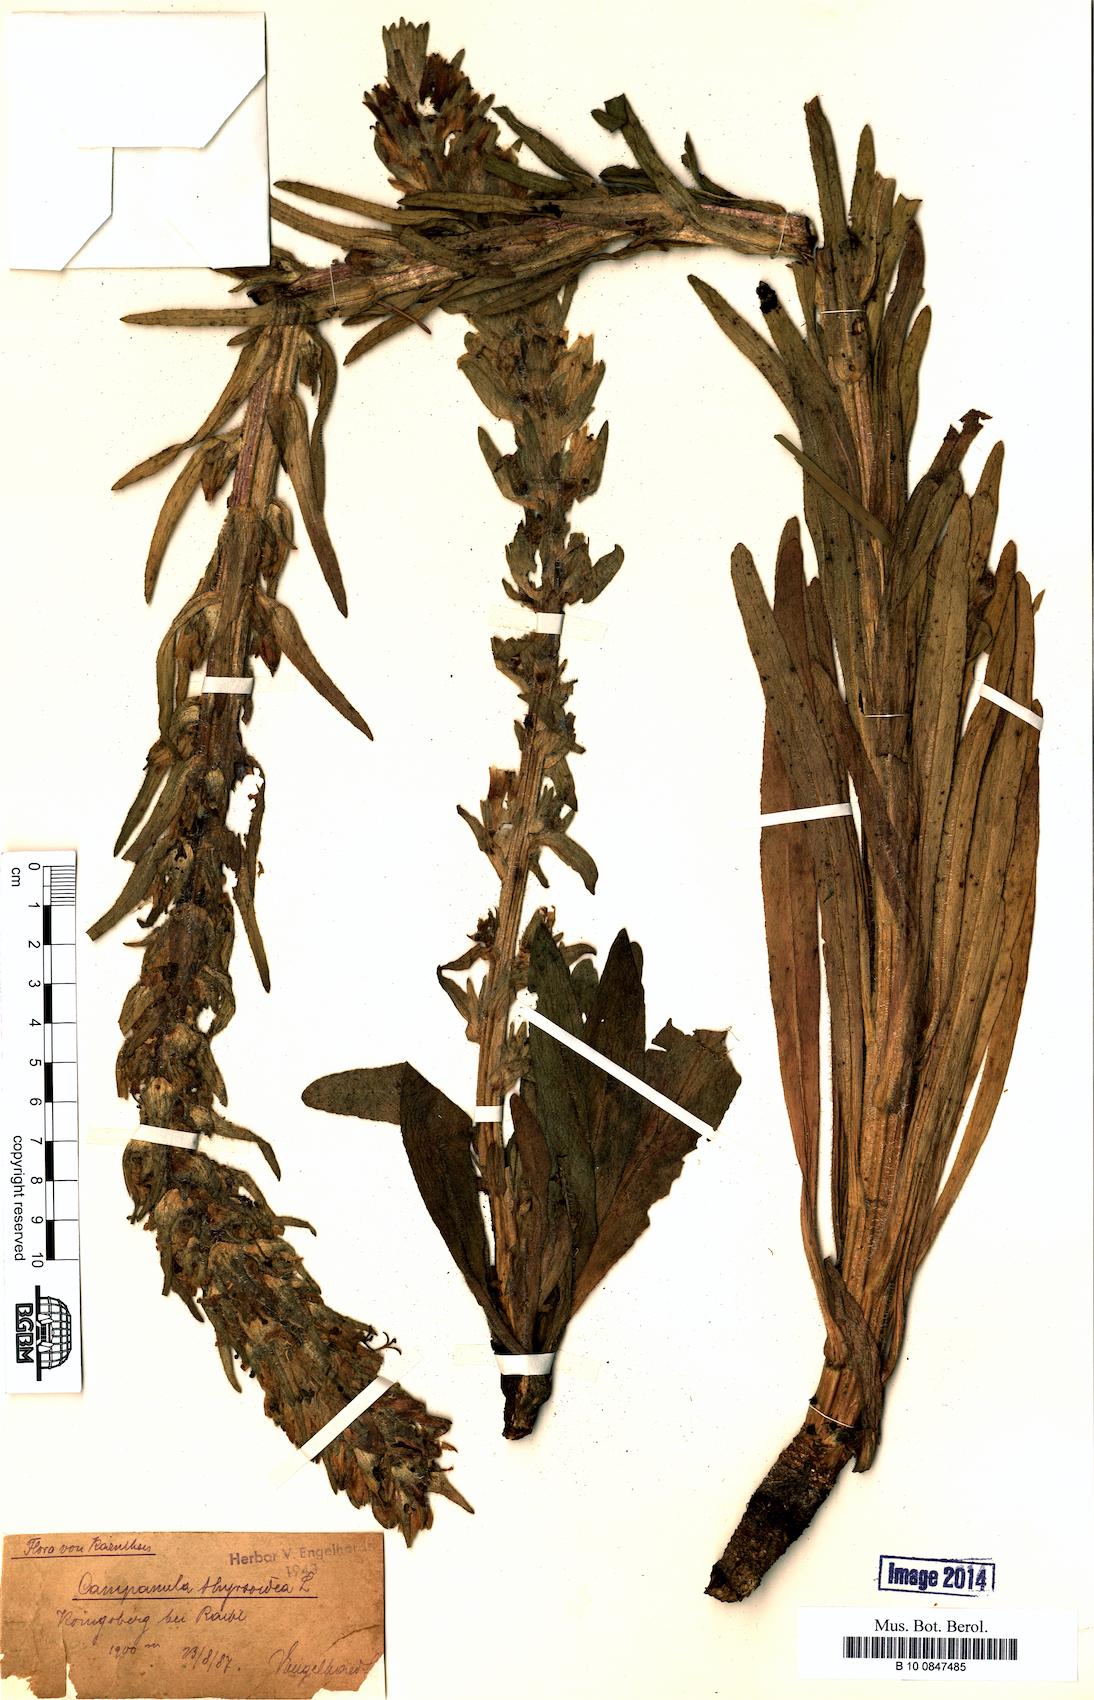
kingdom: Plantae
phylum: Tracheophyta
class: Magnoliopsida
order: Asterales
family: Campanulaceae
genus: Campanula
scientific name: Campanula thyrsoides
